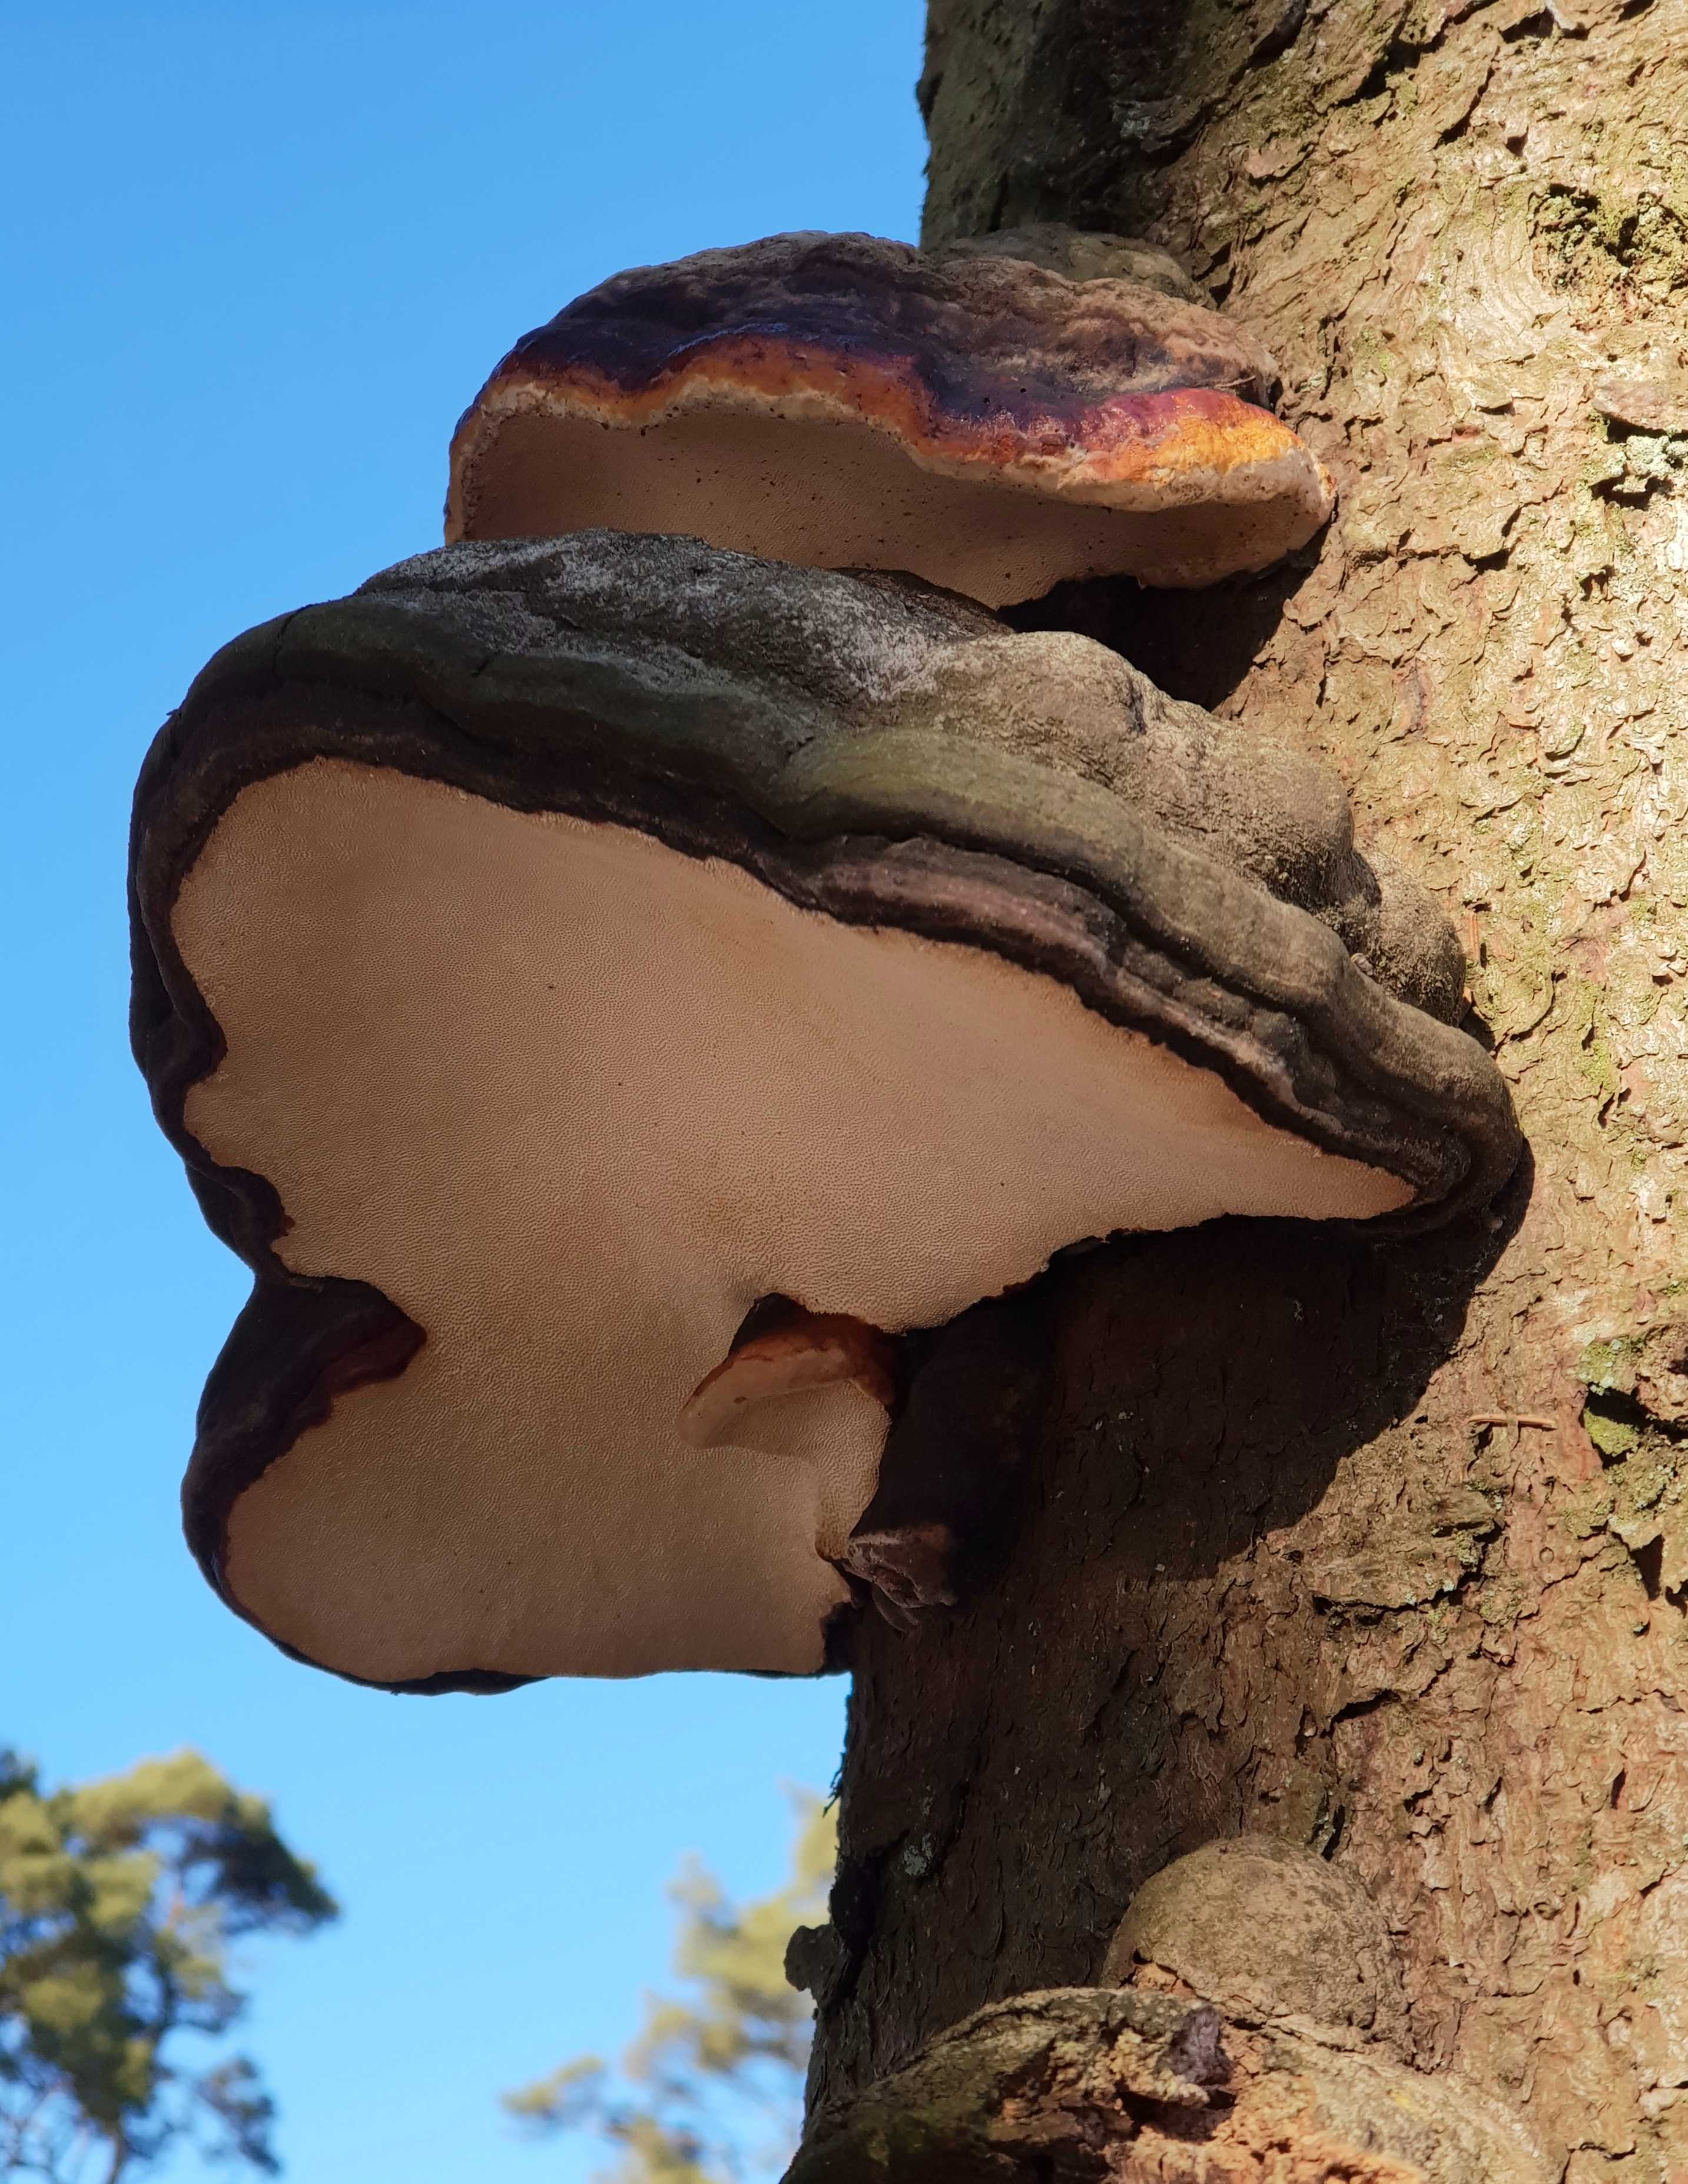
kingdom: Fungi
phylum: Basidiomycota
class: Agaricomycetes
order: Polyporales
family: Fomitopsidaceae
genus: Fomitopsis
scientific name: Fomitopsis pinicola
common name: randbæltet hovporesvamp
